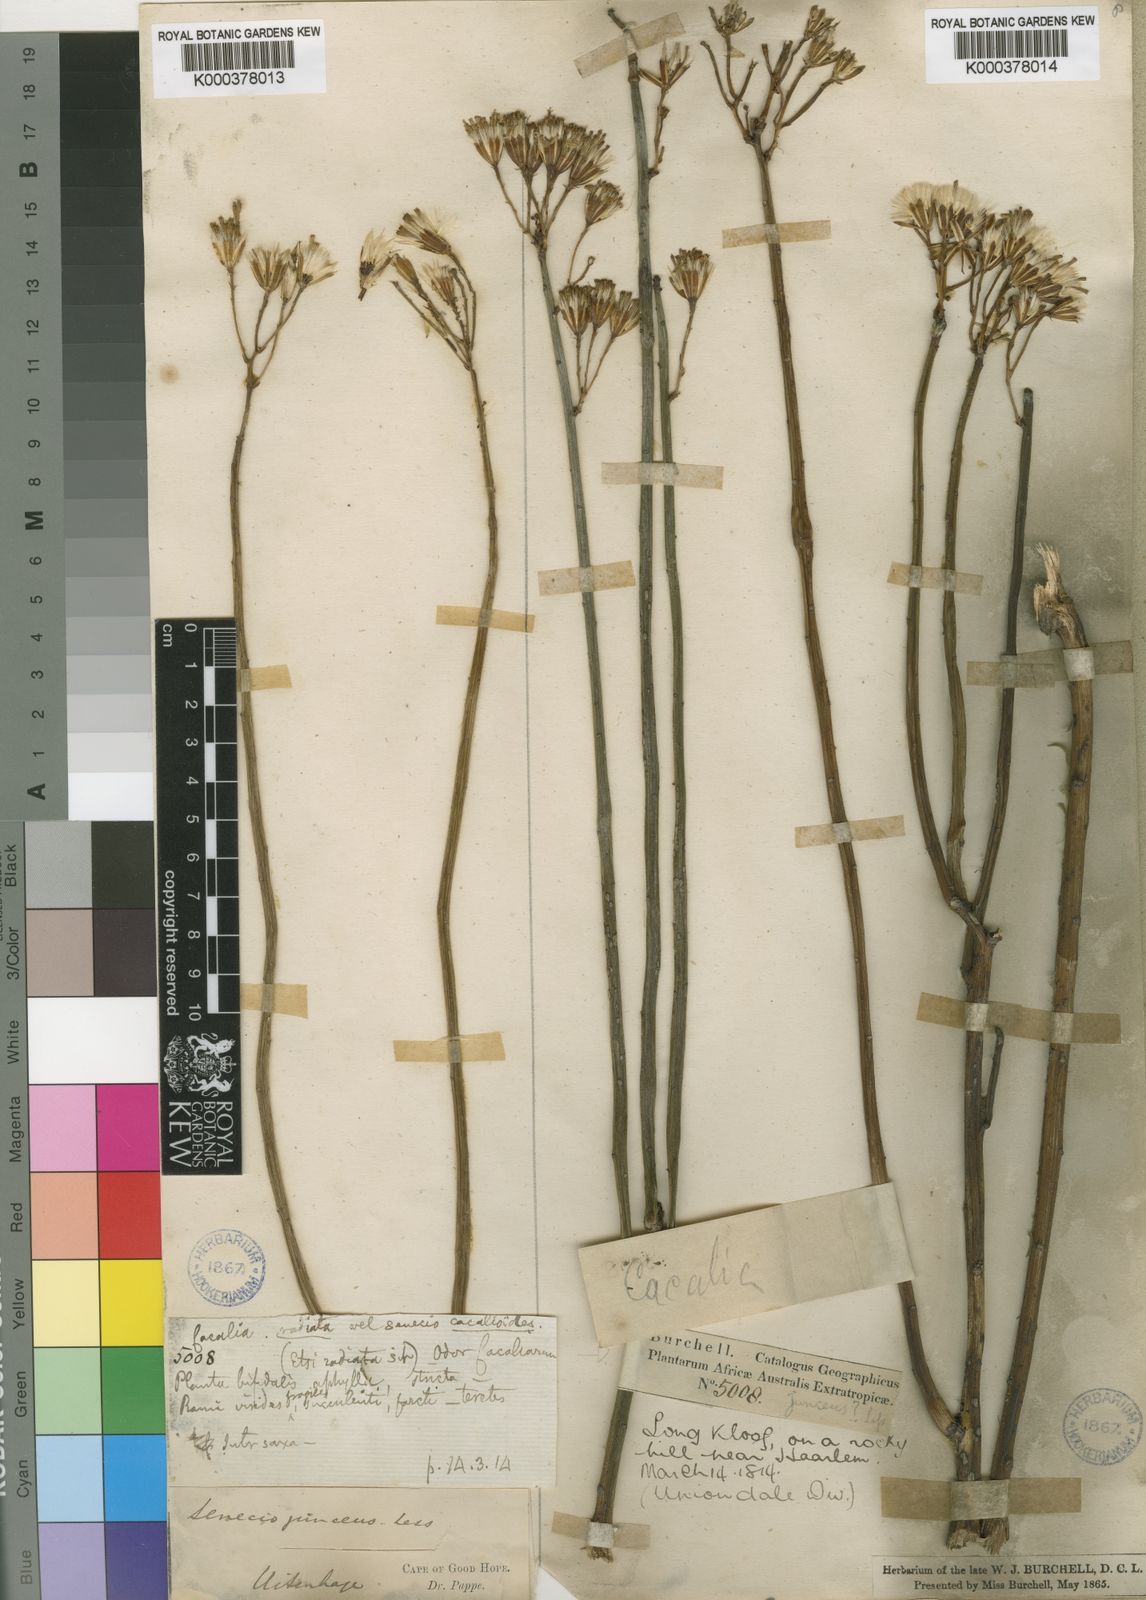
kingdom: Plantae
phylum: Tracheophyta
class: Magnoliopsida
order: Asterales
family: Asteraceae
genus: Senecio
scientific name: Senecio junceus
